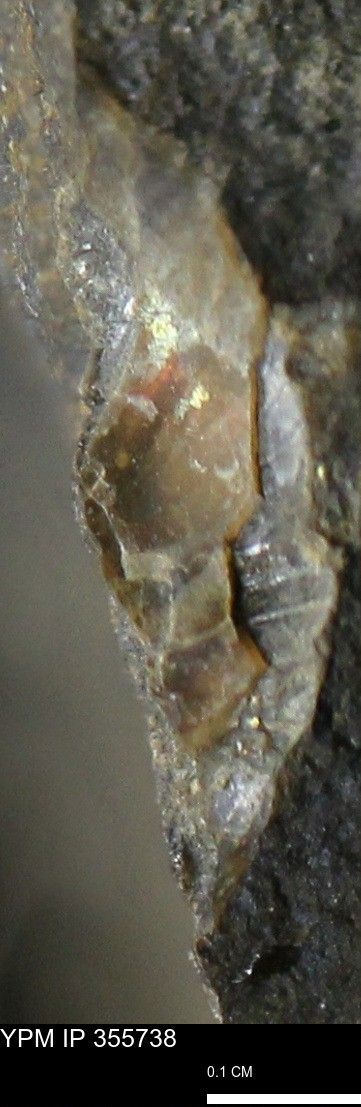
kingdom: Animalia
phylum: Mollusca
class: Cephalopoda
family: Scaphitidae
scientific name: Scaphitidae
